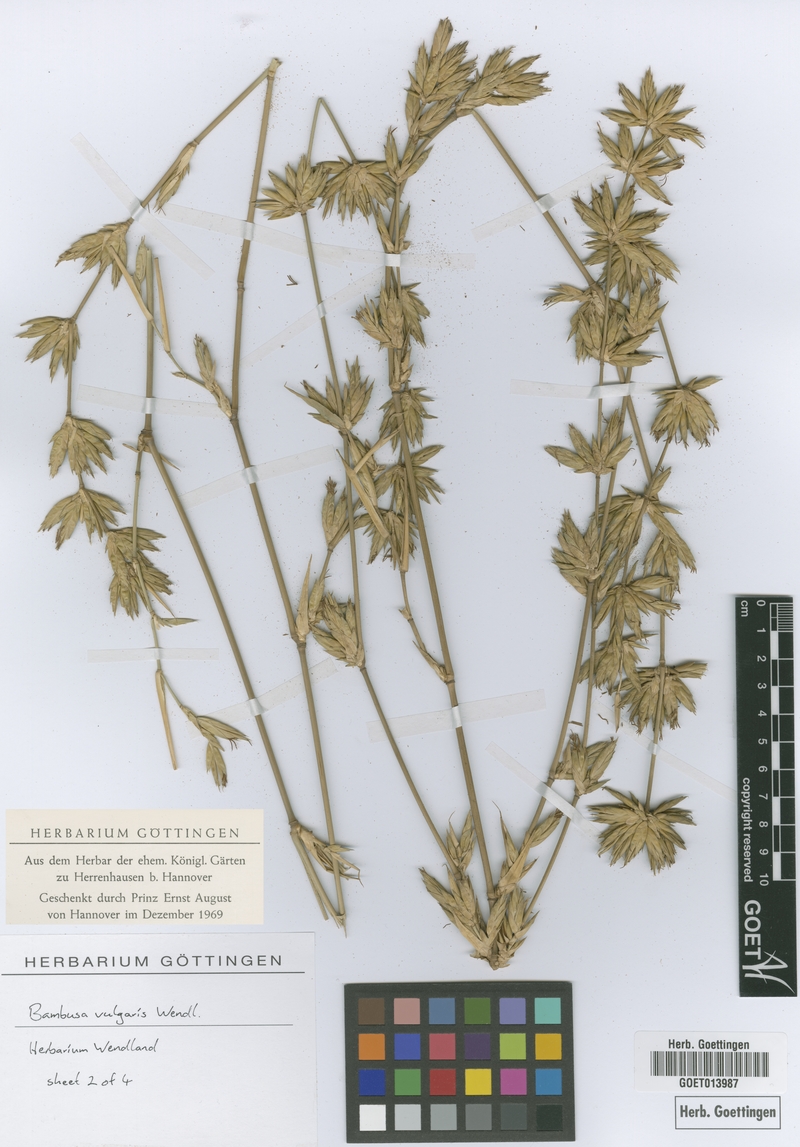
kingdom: Plantae
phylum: Tracheophyta
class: Liliopsida
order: Poales
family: Poaceae
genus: Bambusa
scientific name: Bambusa vulgaris
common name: Common bamboo
